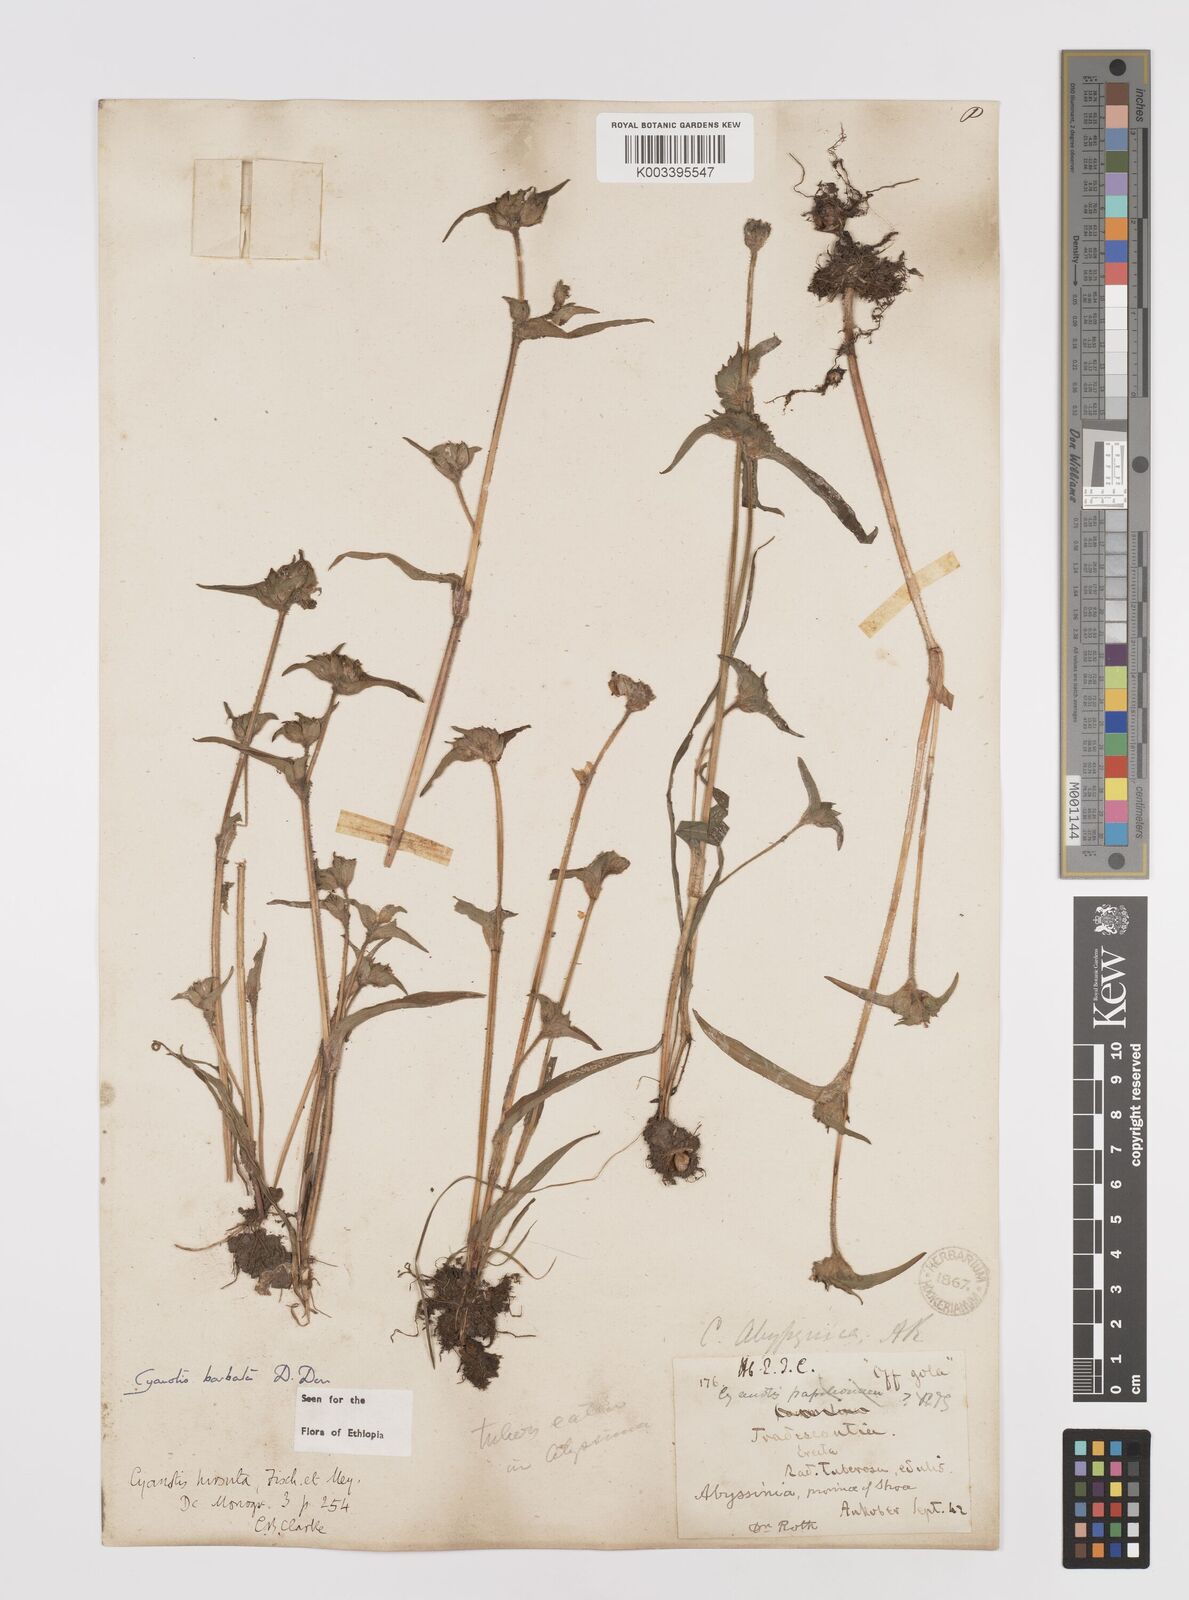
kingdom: Plantae
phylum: Tracheophyta
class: Liliopsida
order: Commelinales
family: Commelinaceae
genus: Cyanotis
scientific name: Cyanotis vaga
